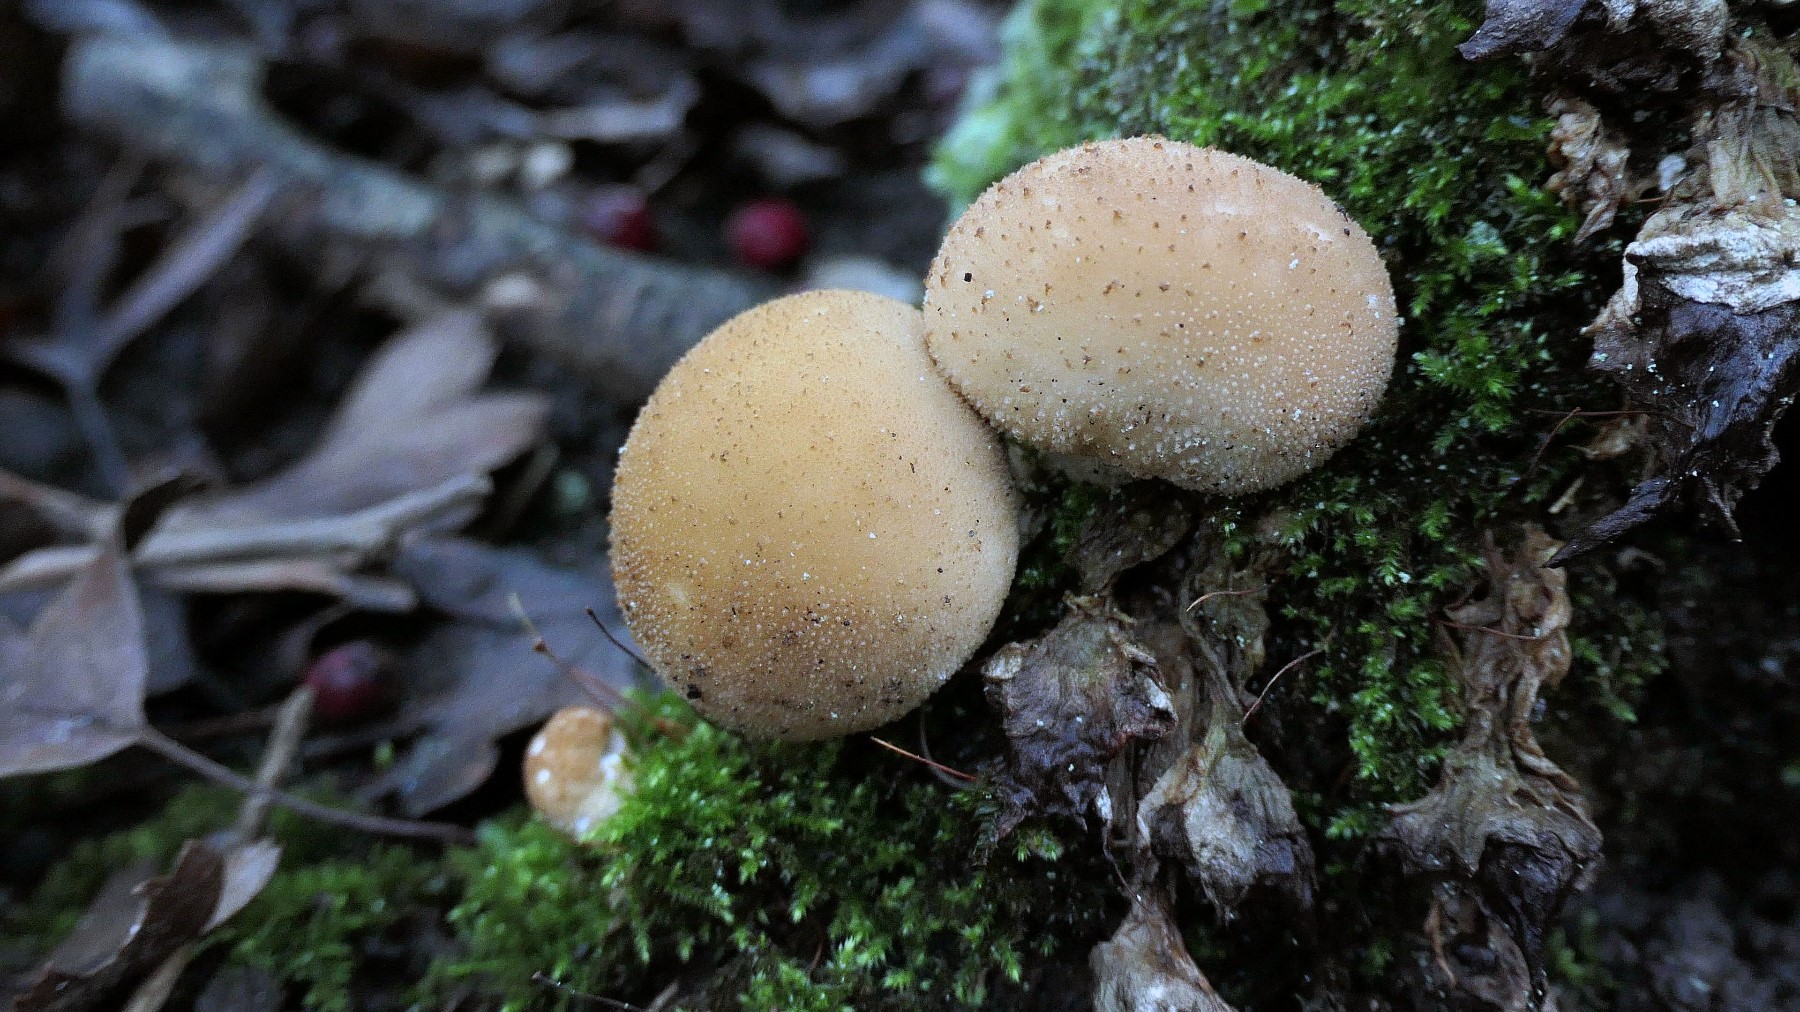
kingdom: Fungi
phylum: Basidiomycota
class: Agaricomycetes
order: Agaricales
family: Lycoperdaceae
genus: Apioperdon
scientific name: Apioperdon pyriforme
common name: pære-støvbold
